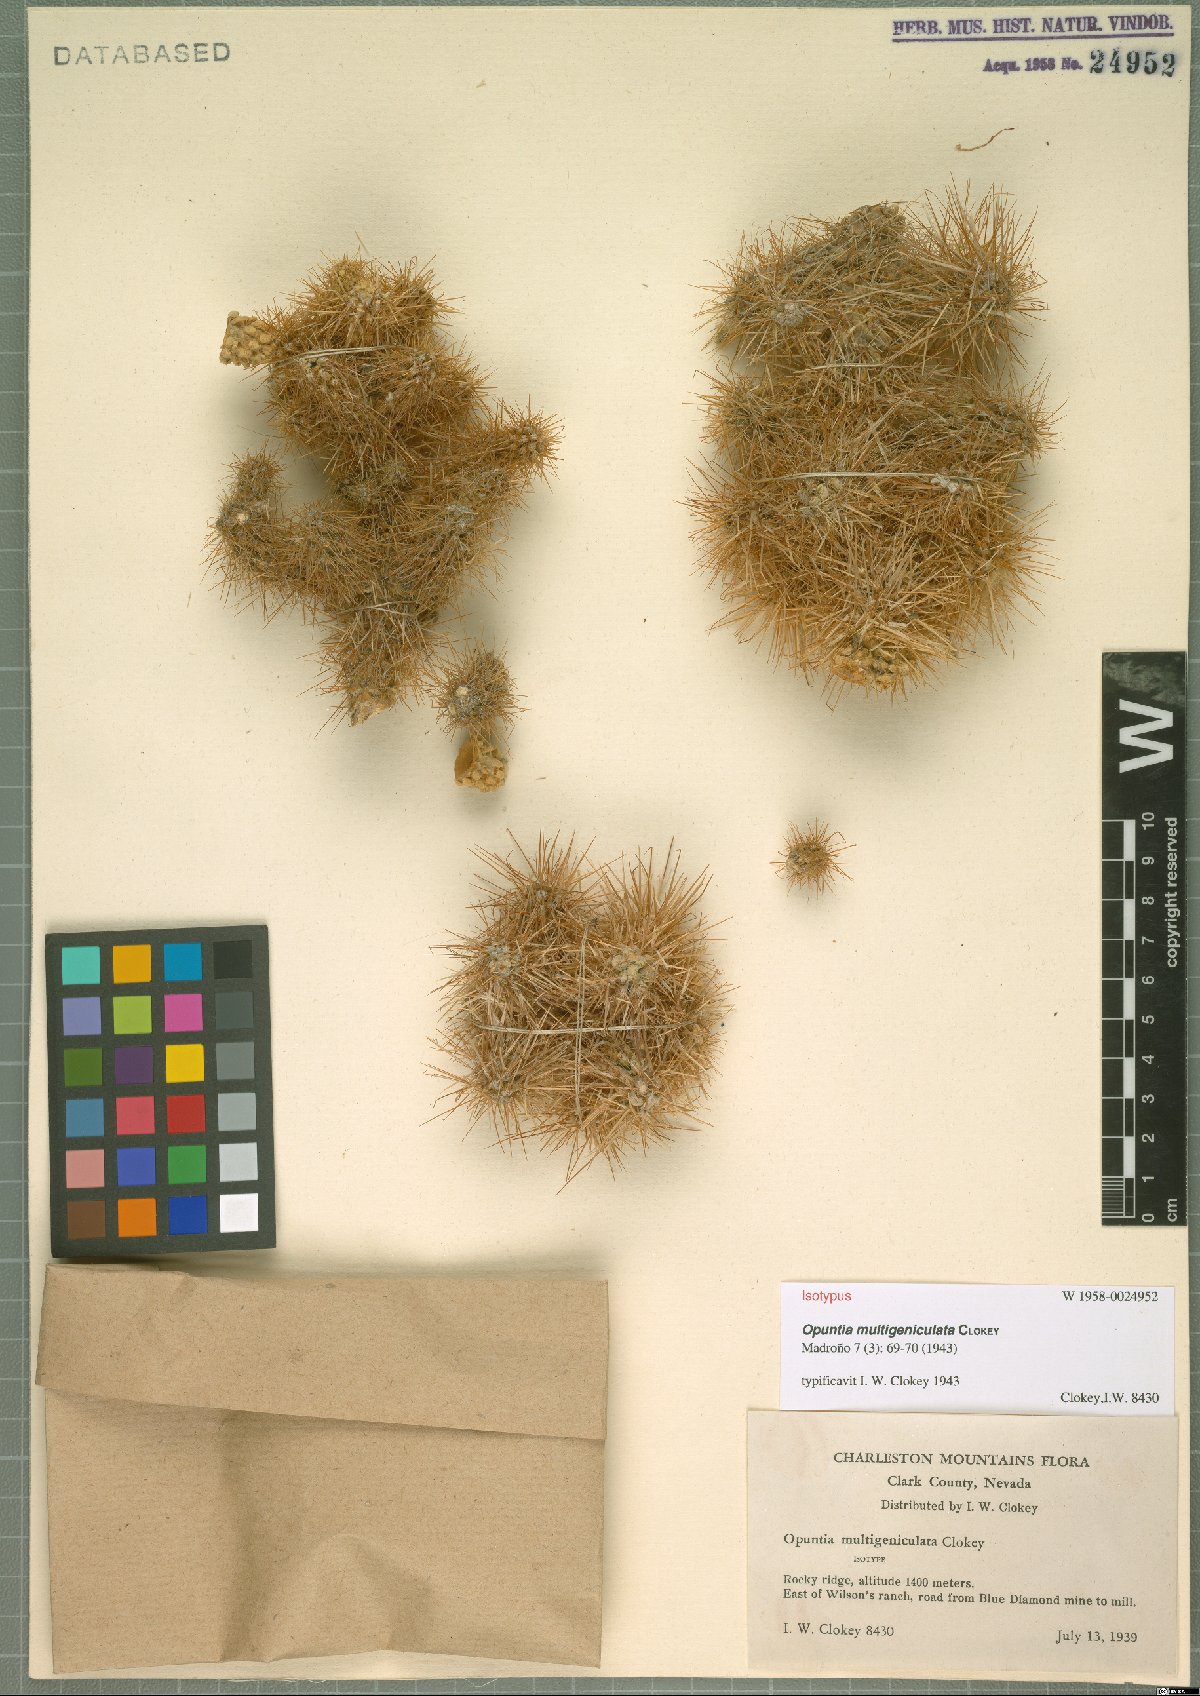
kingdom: Plantae
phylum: Tracheophyta
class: Magnoliopsida
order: Caryophyllales
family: Cactaceae
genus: Cylindropuntia
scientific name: Cylindropuntia multigeniculata
